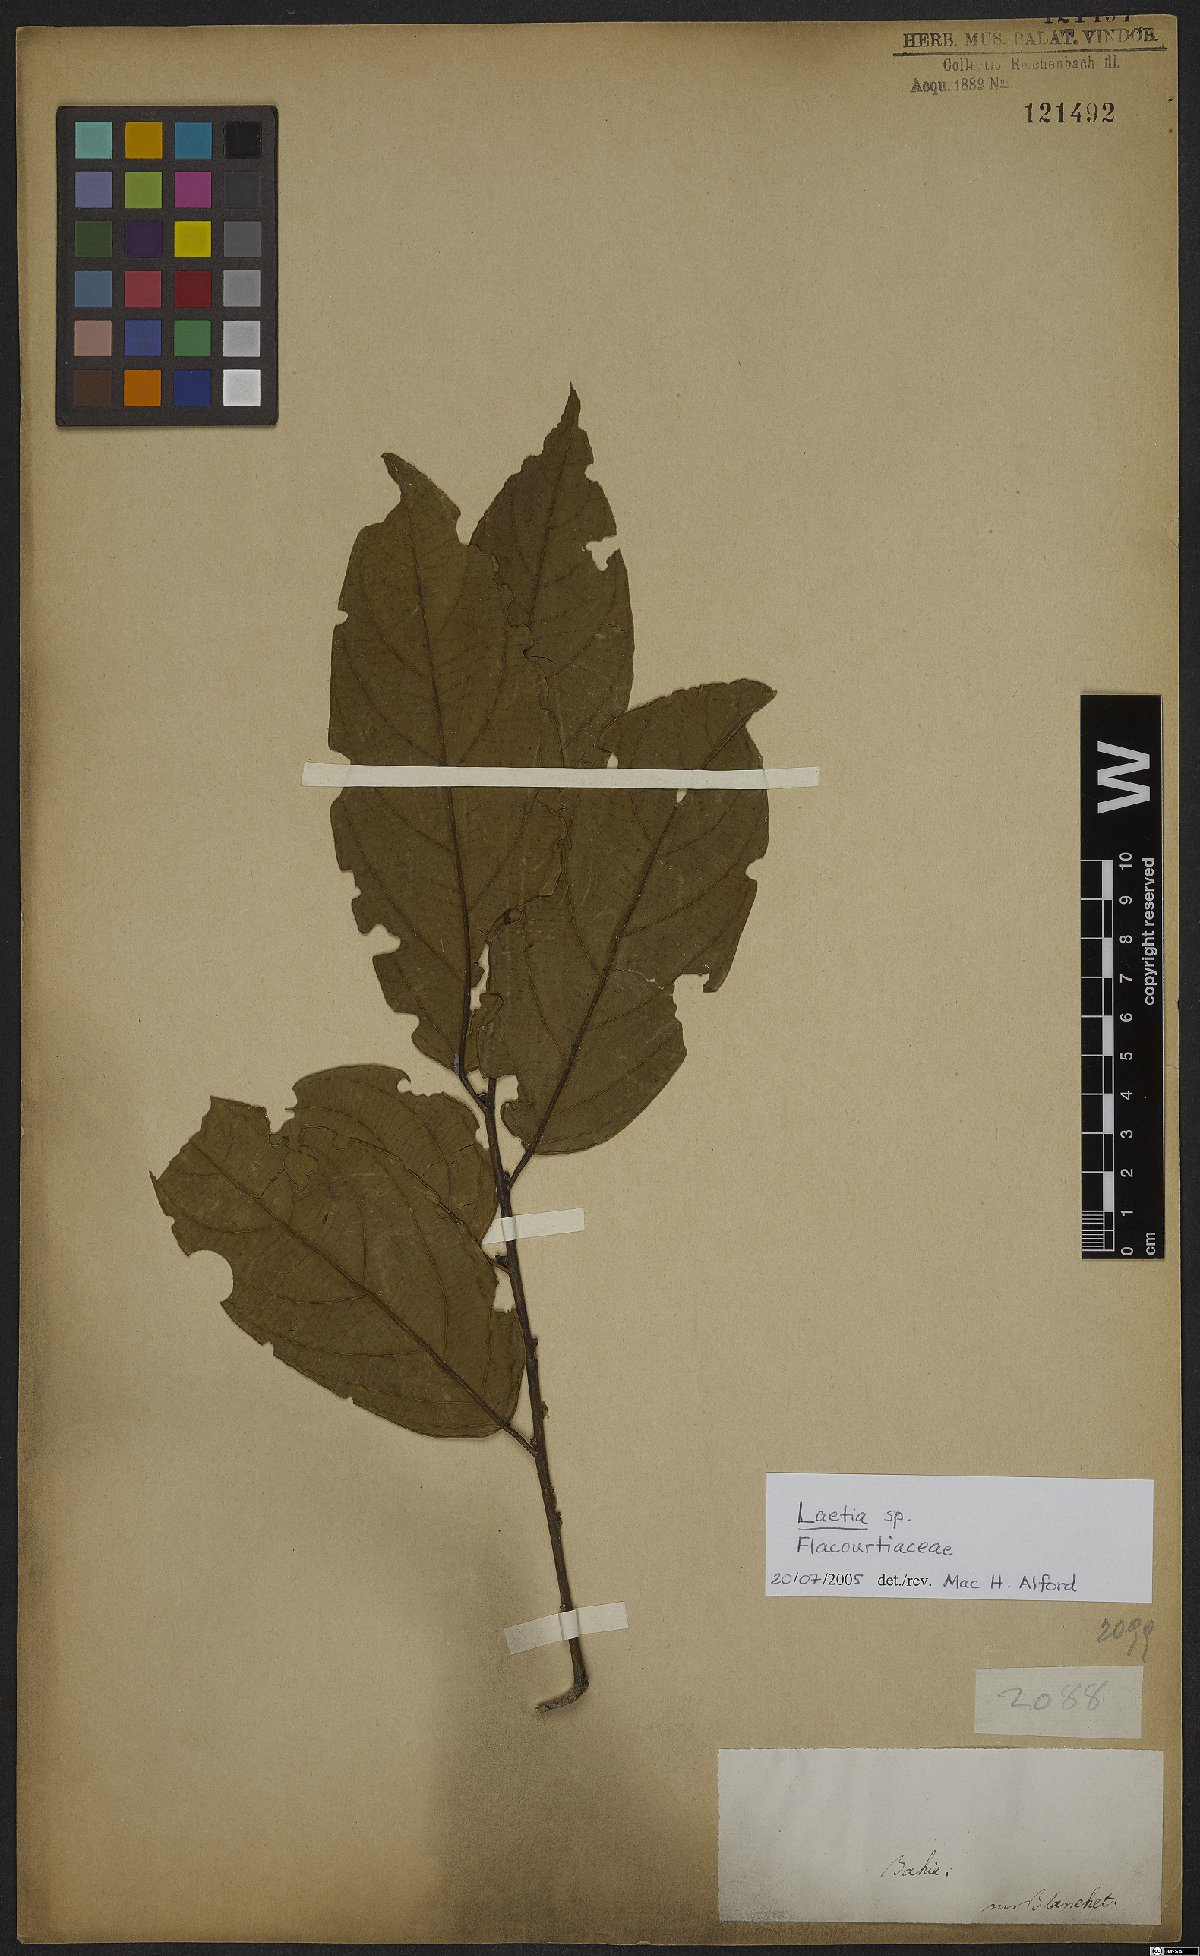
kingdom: Plantae
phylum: Tracheophyta
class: Magnoliopsida
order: Malpighiales
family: Flacourtiaceae
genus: Laetia
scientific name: Laetia
